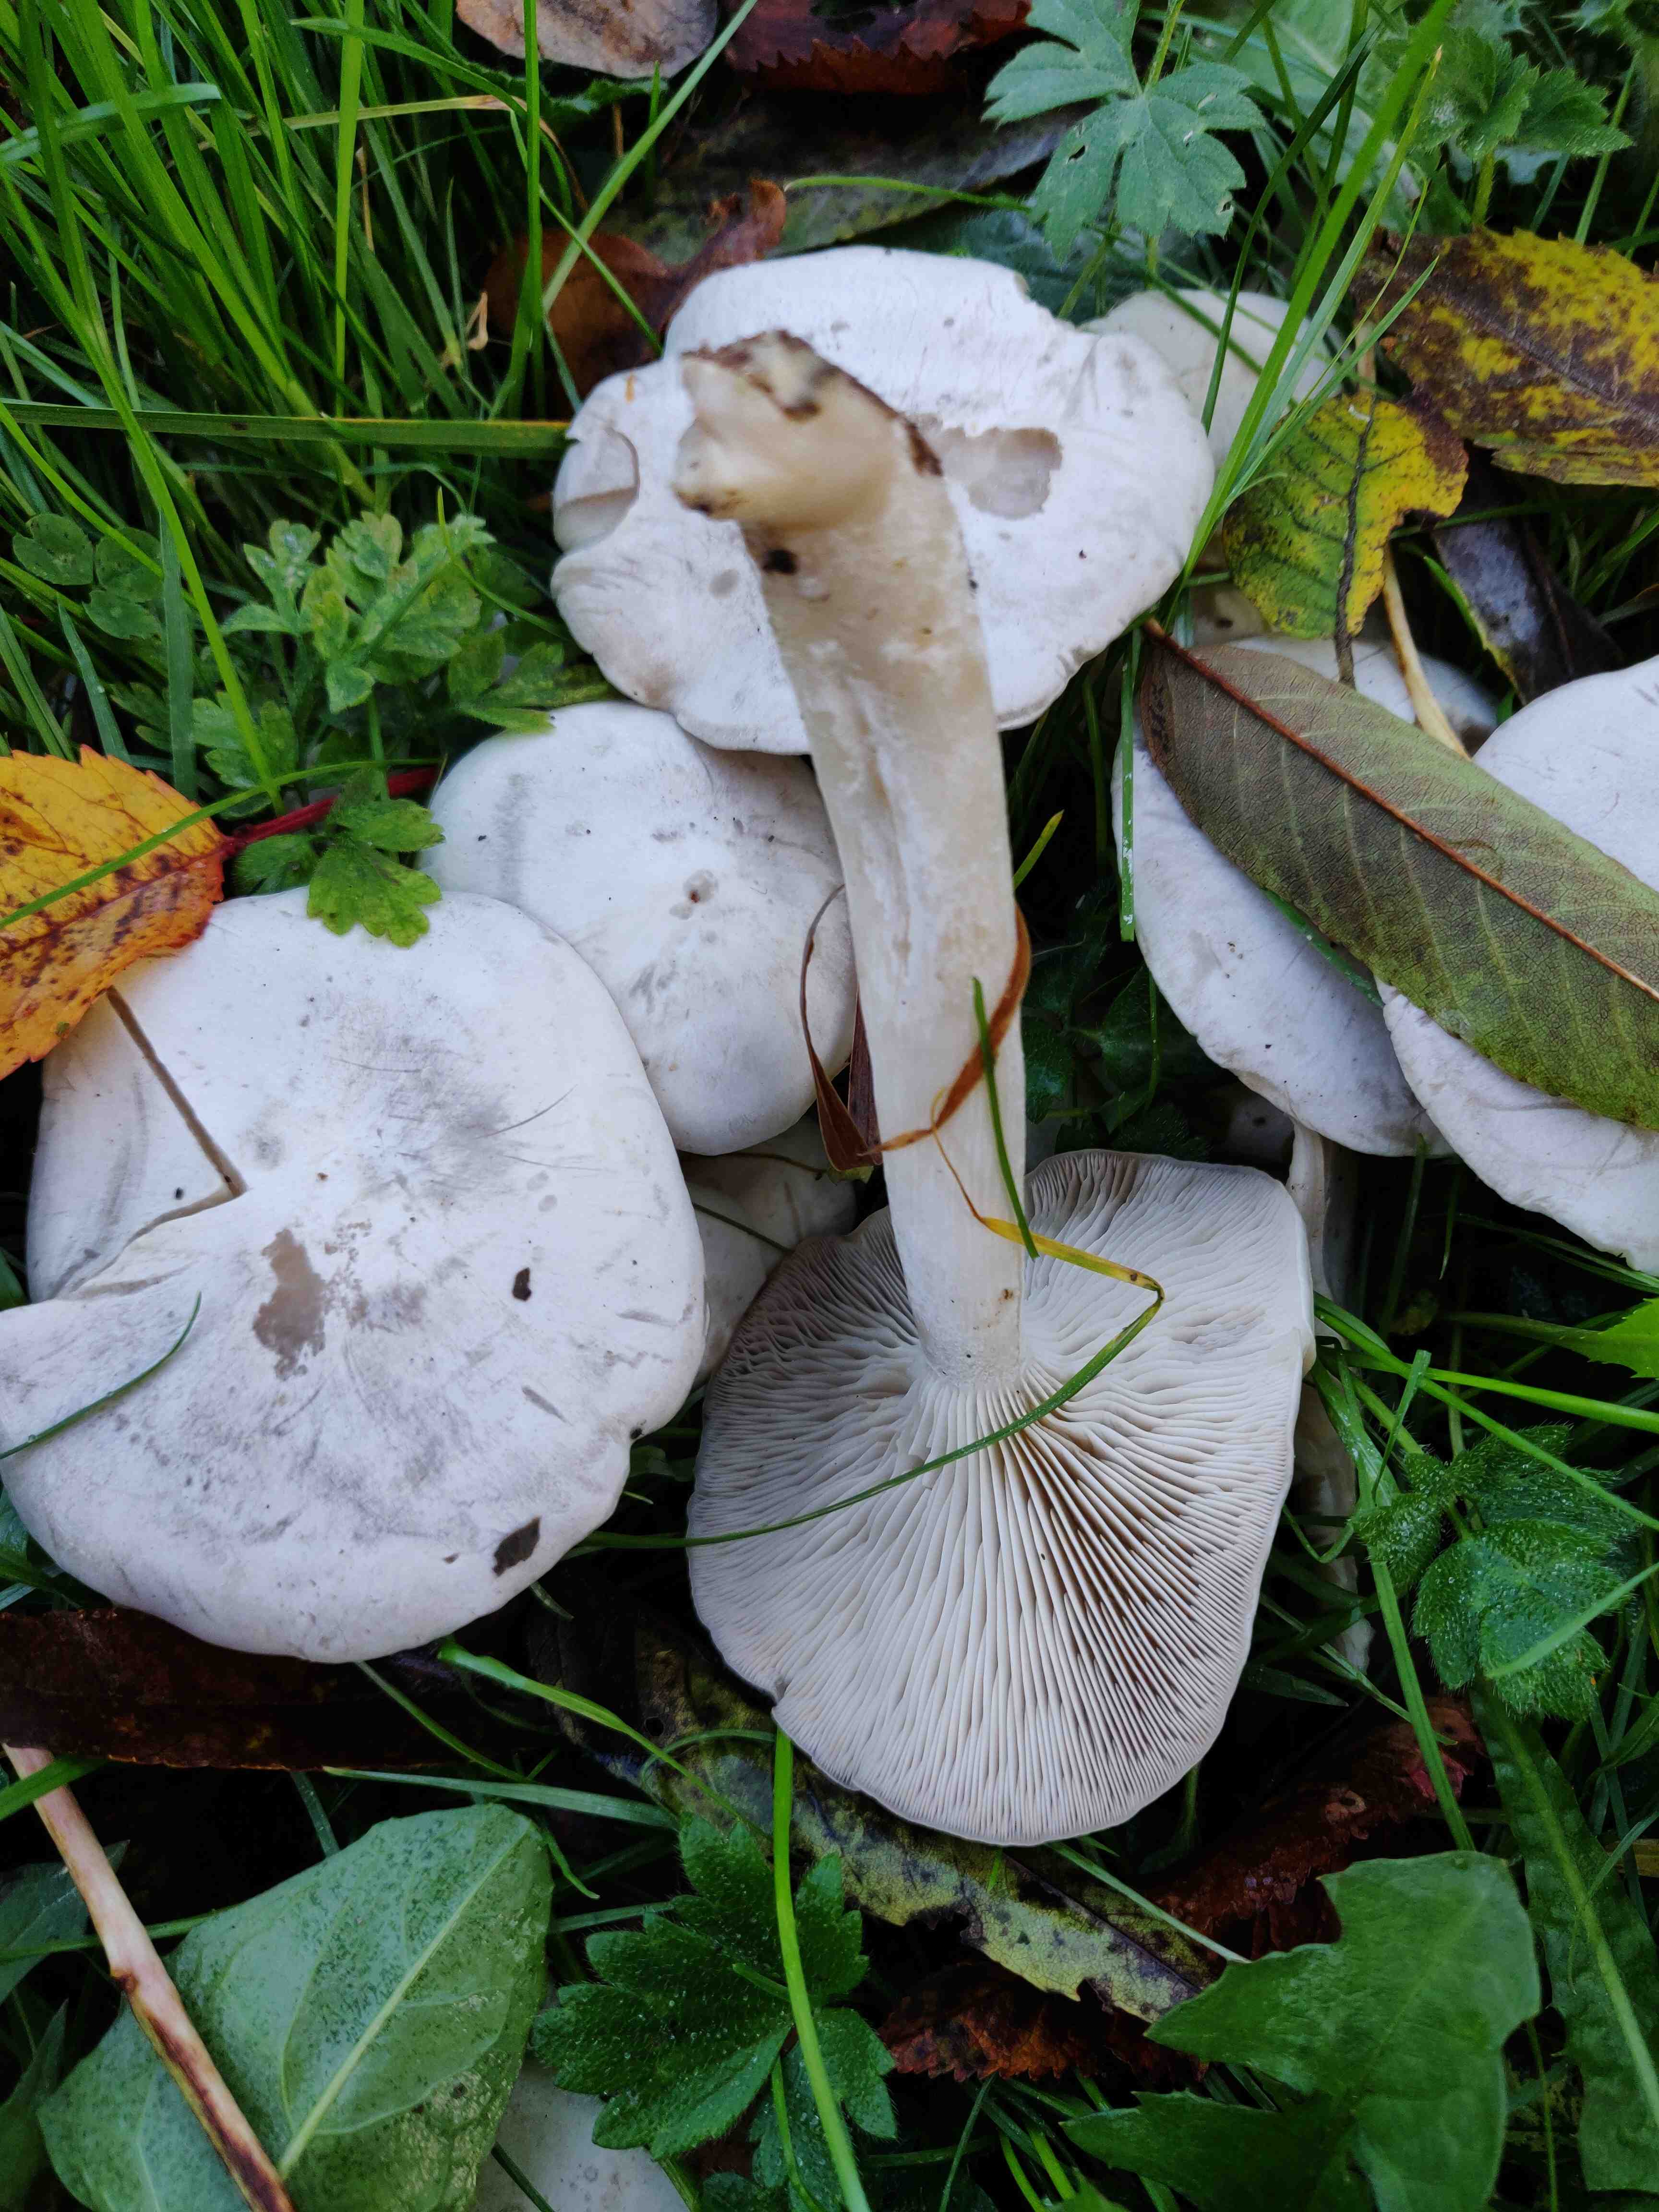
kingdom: Fungi
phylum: Basidiomycota
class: Agaricomycetes
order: Agaricales
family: Tricholomataceae
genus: Leucocybe
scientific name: Leucocybe connata
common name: knippe-tragthat
